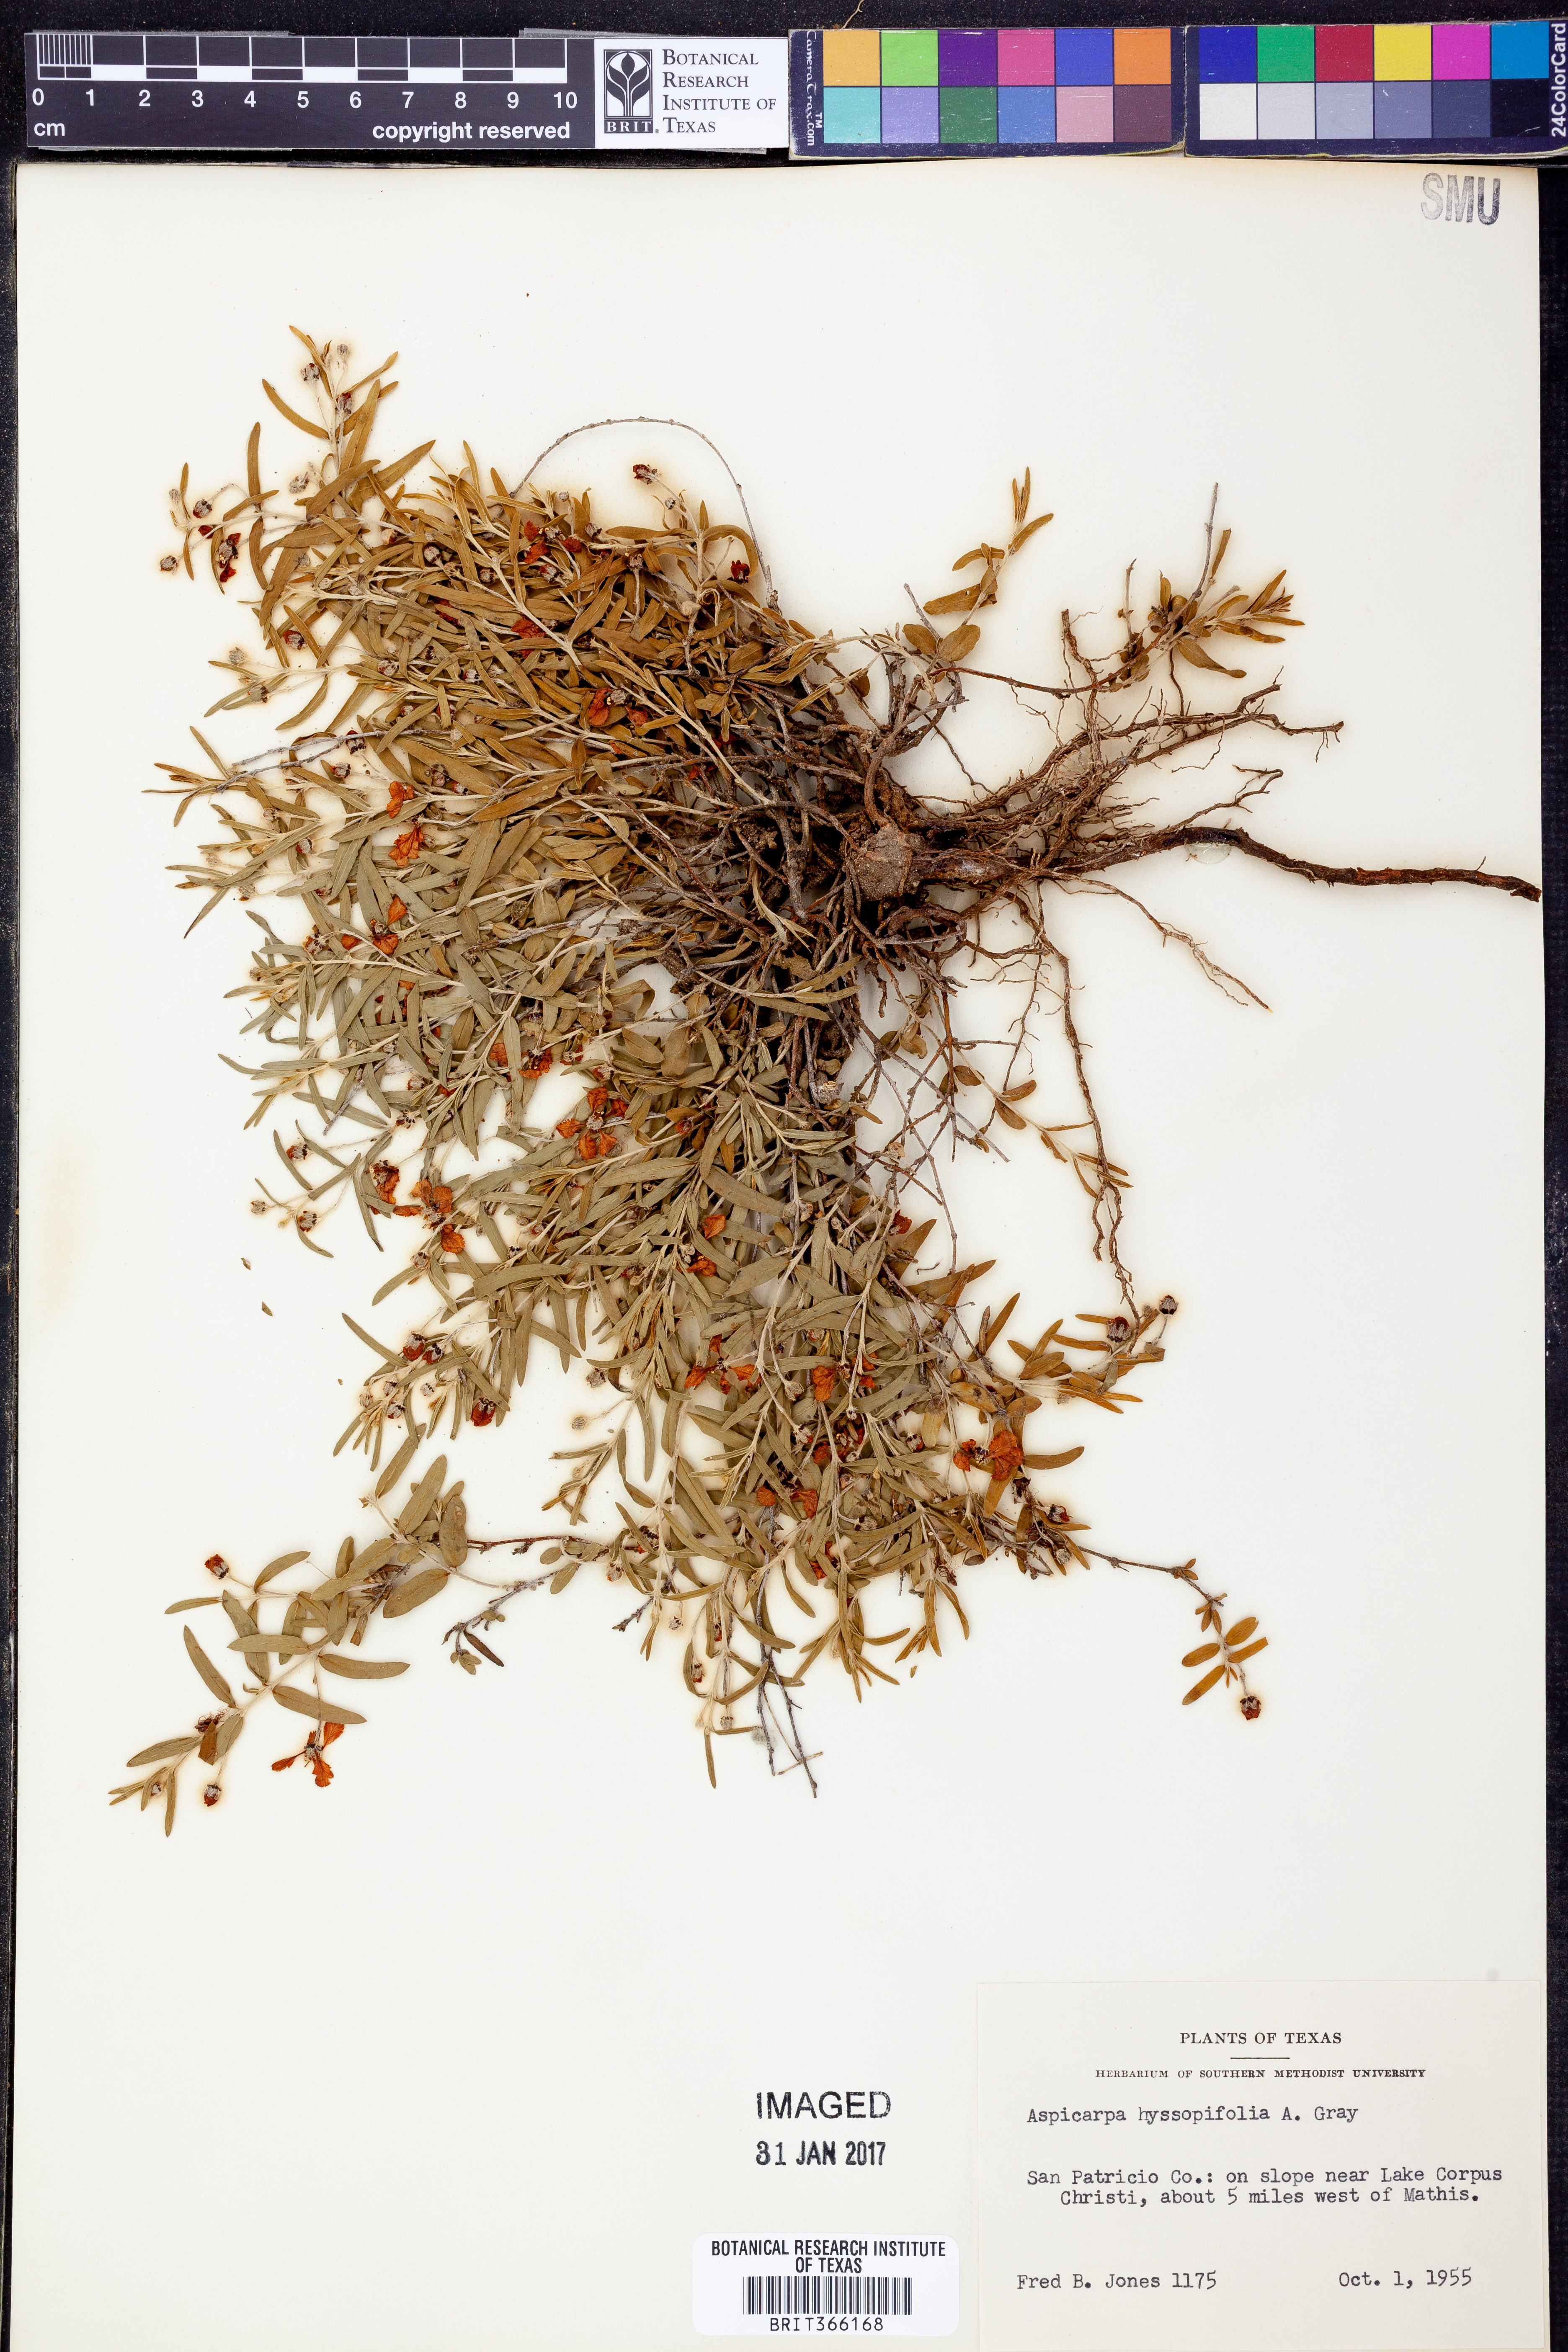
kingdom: Plantae
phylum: Tracheophyta
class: Magnoliopsida
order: Malpighiales
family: Malpighiaceae
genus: Aspicarpa
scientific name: Aspicarpa hyssopifolia
